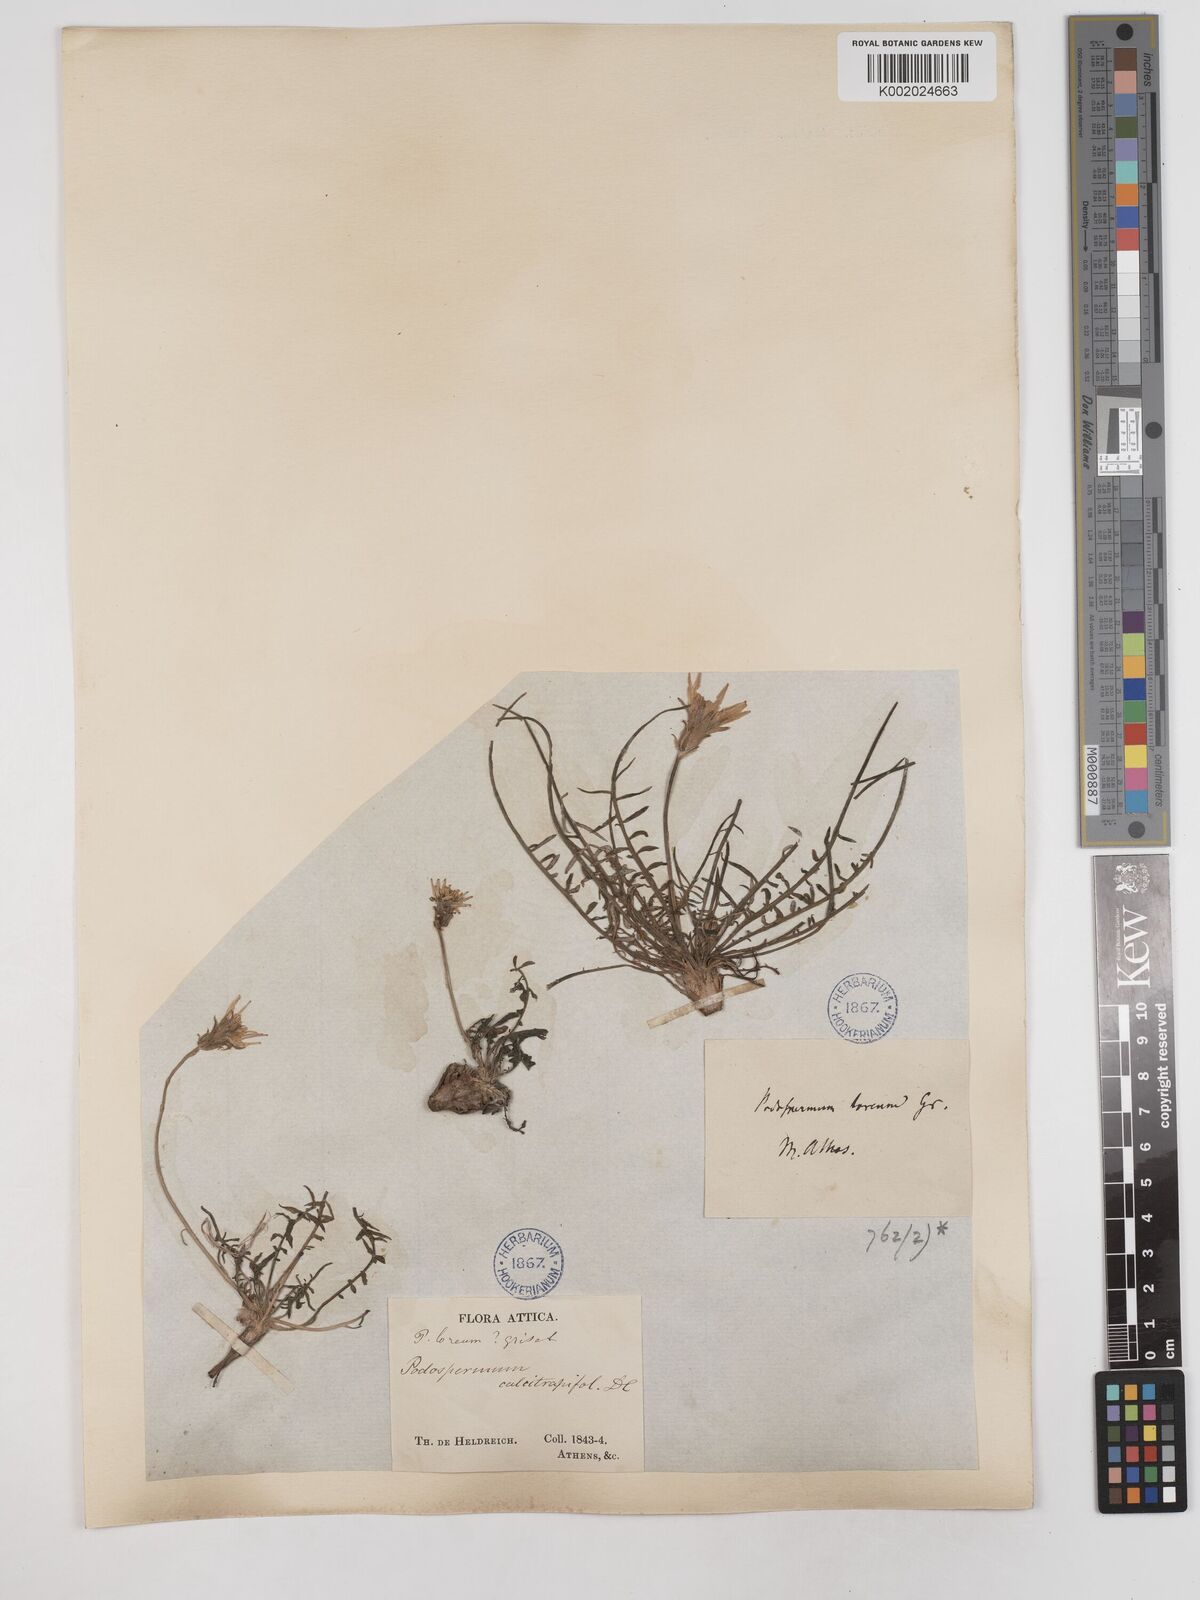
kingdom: Plantae
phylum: Tracheophyta
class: Magnoliopsida
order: Asterales
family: Asteraceae
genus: Scorzonera
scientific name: Scorzonera cana
